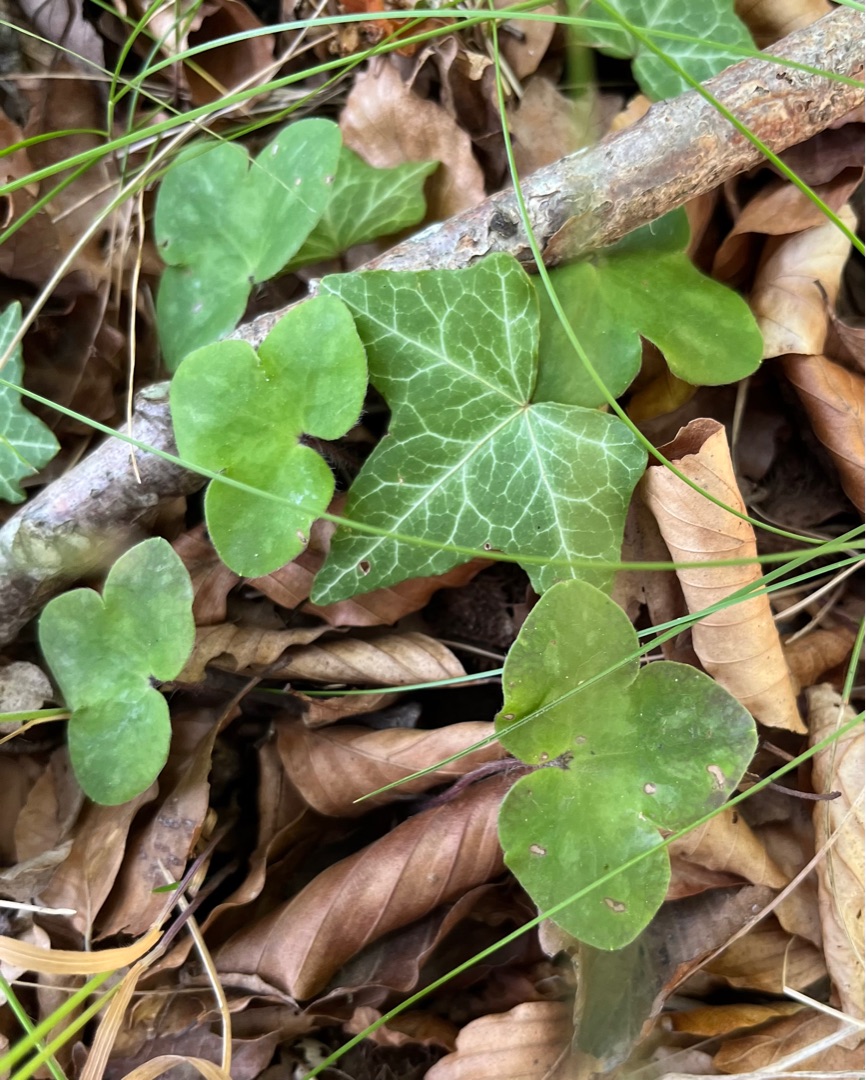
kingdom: Plantae
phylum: Tracheophyta
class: Magnoliopsida
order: Ranunculales
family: Ranunculaceae
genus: Hepatica
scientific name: Hepatica nobilis
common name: Blå anemone
